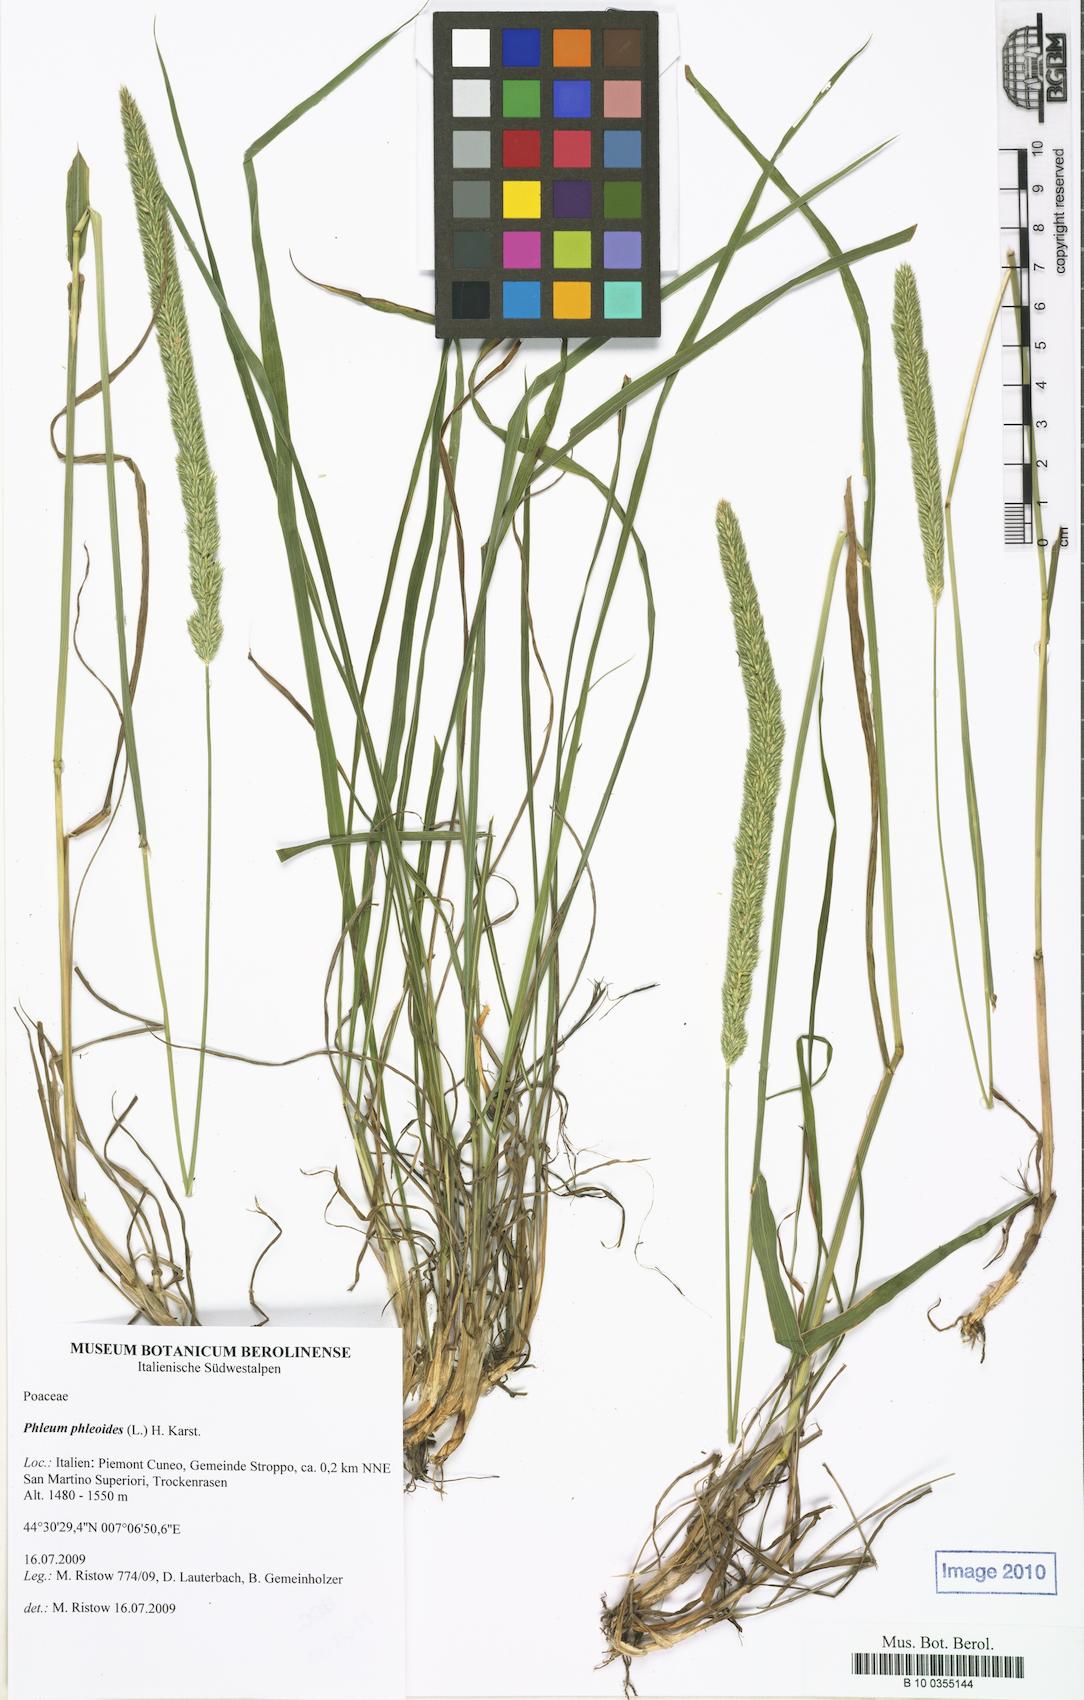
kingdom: Plantae
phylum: Tracheophyta
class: Liliopsida
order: Poales
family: Poaceae
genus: Phleum
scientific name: Phleum phleoides
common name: Purple-stem cat's-tail
